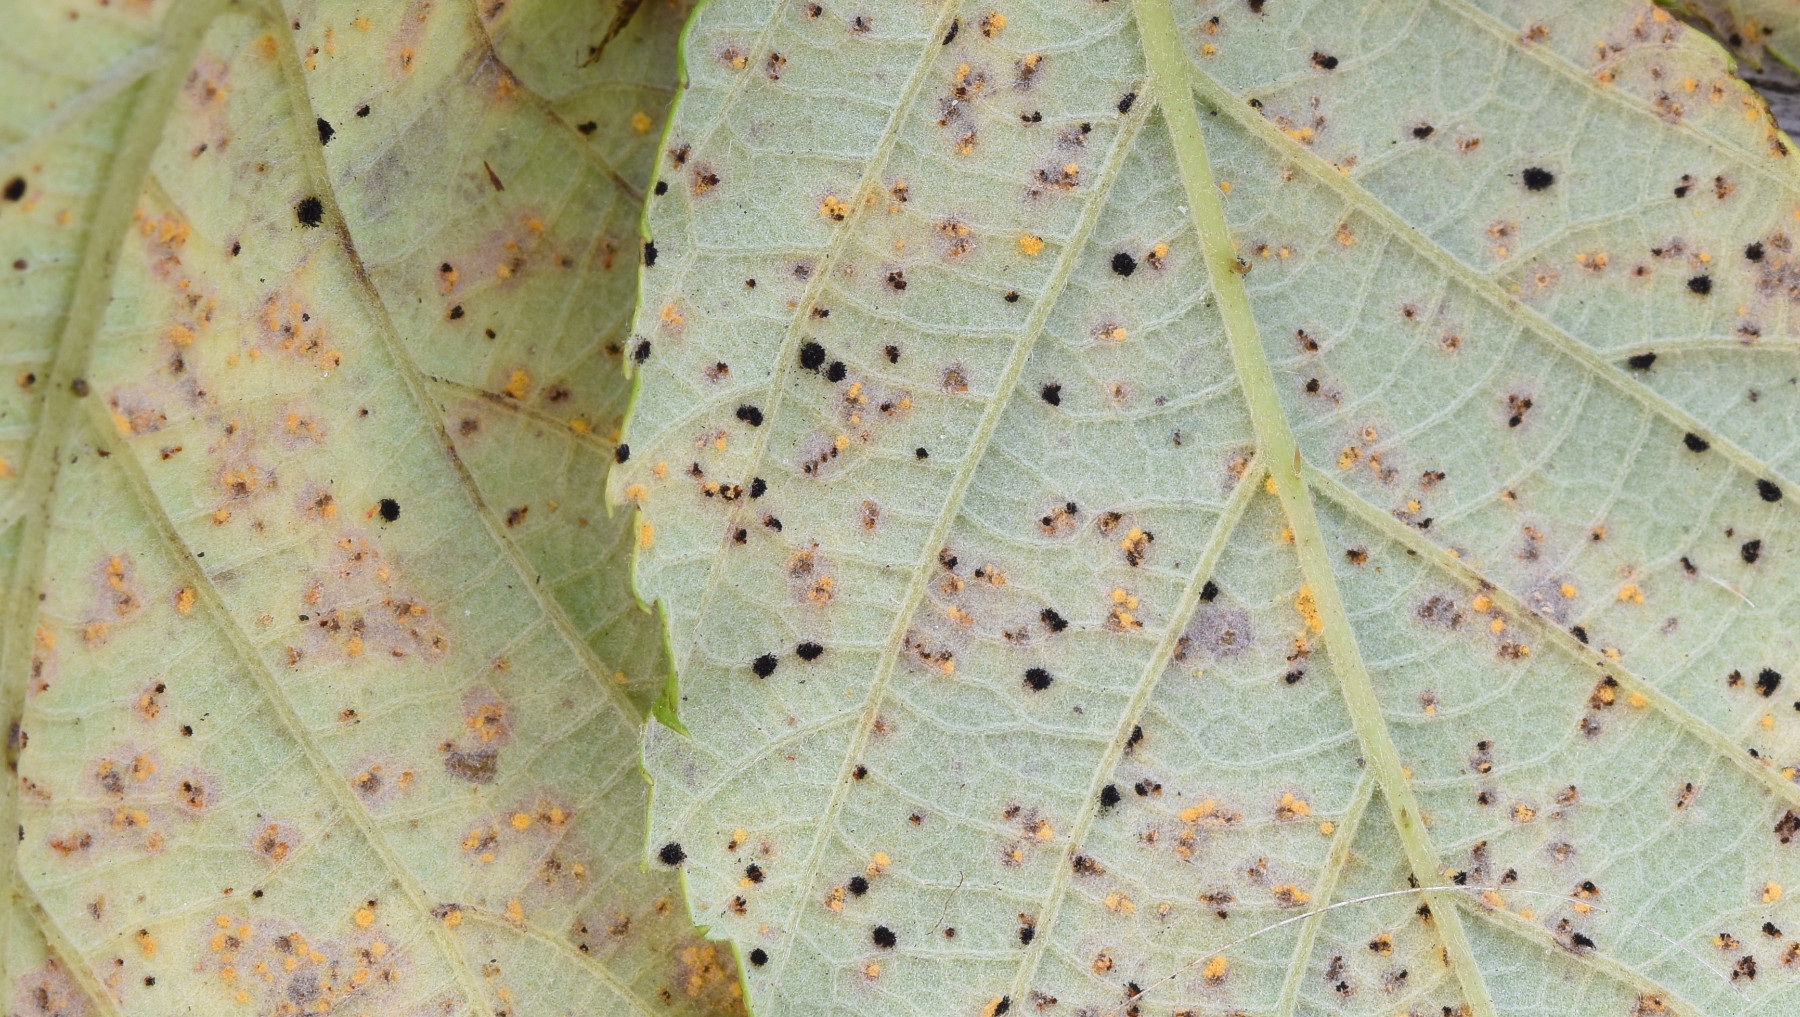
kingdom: Fungi
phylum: Basidiomycota
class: Pucciniomycetes
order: Pucciniales
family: Phragmidiaceae
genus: Phragmidium
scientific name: Phragmidium violaceum
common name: violet flercellerust
